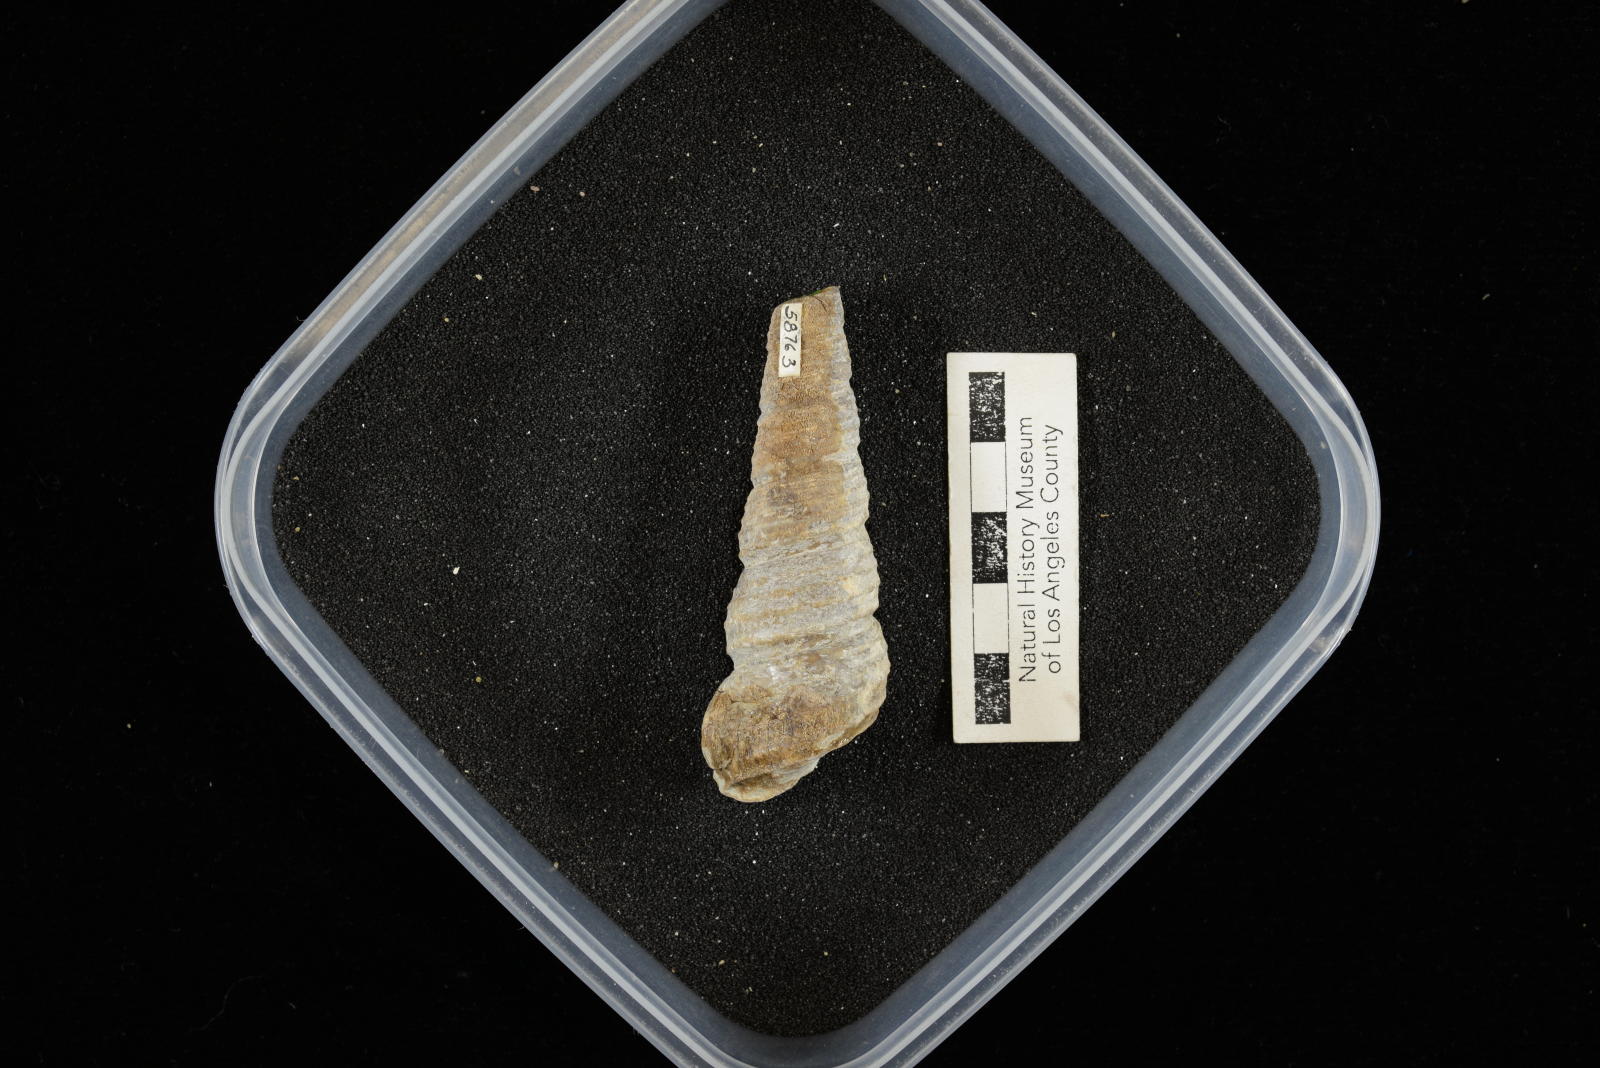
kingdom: Animalia
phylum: Mollusca
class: Gastropoda
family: Turritellidae
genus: Turritella
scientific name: Turritella chicoensis
